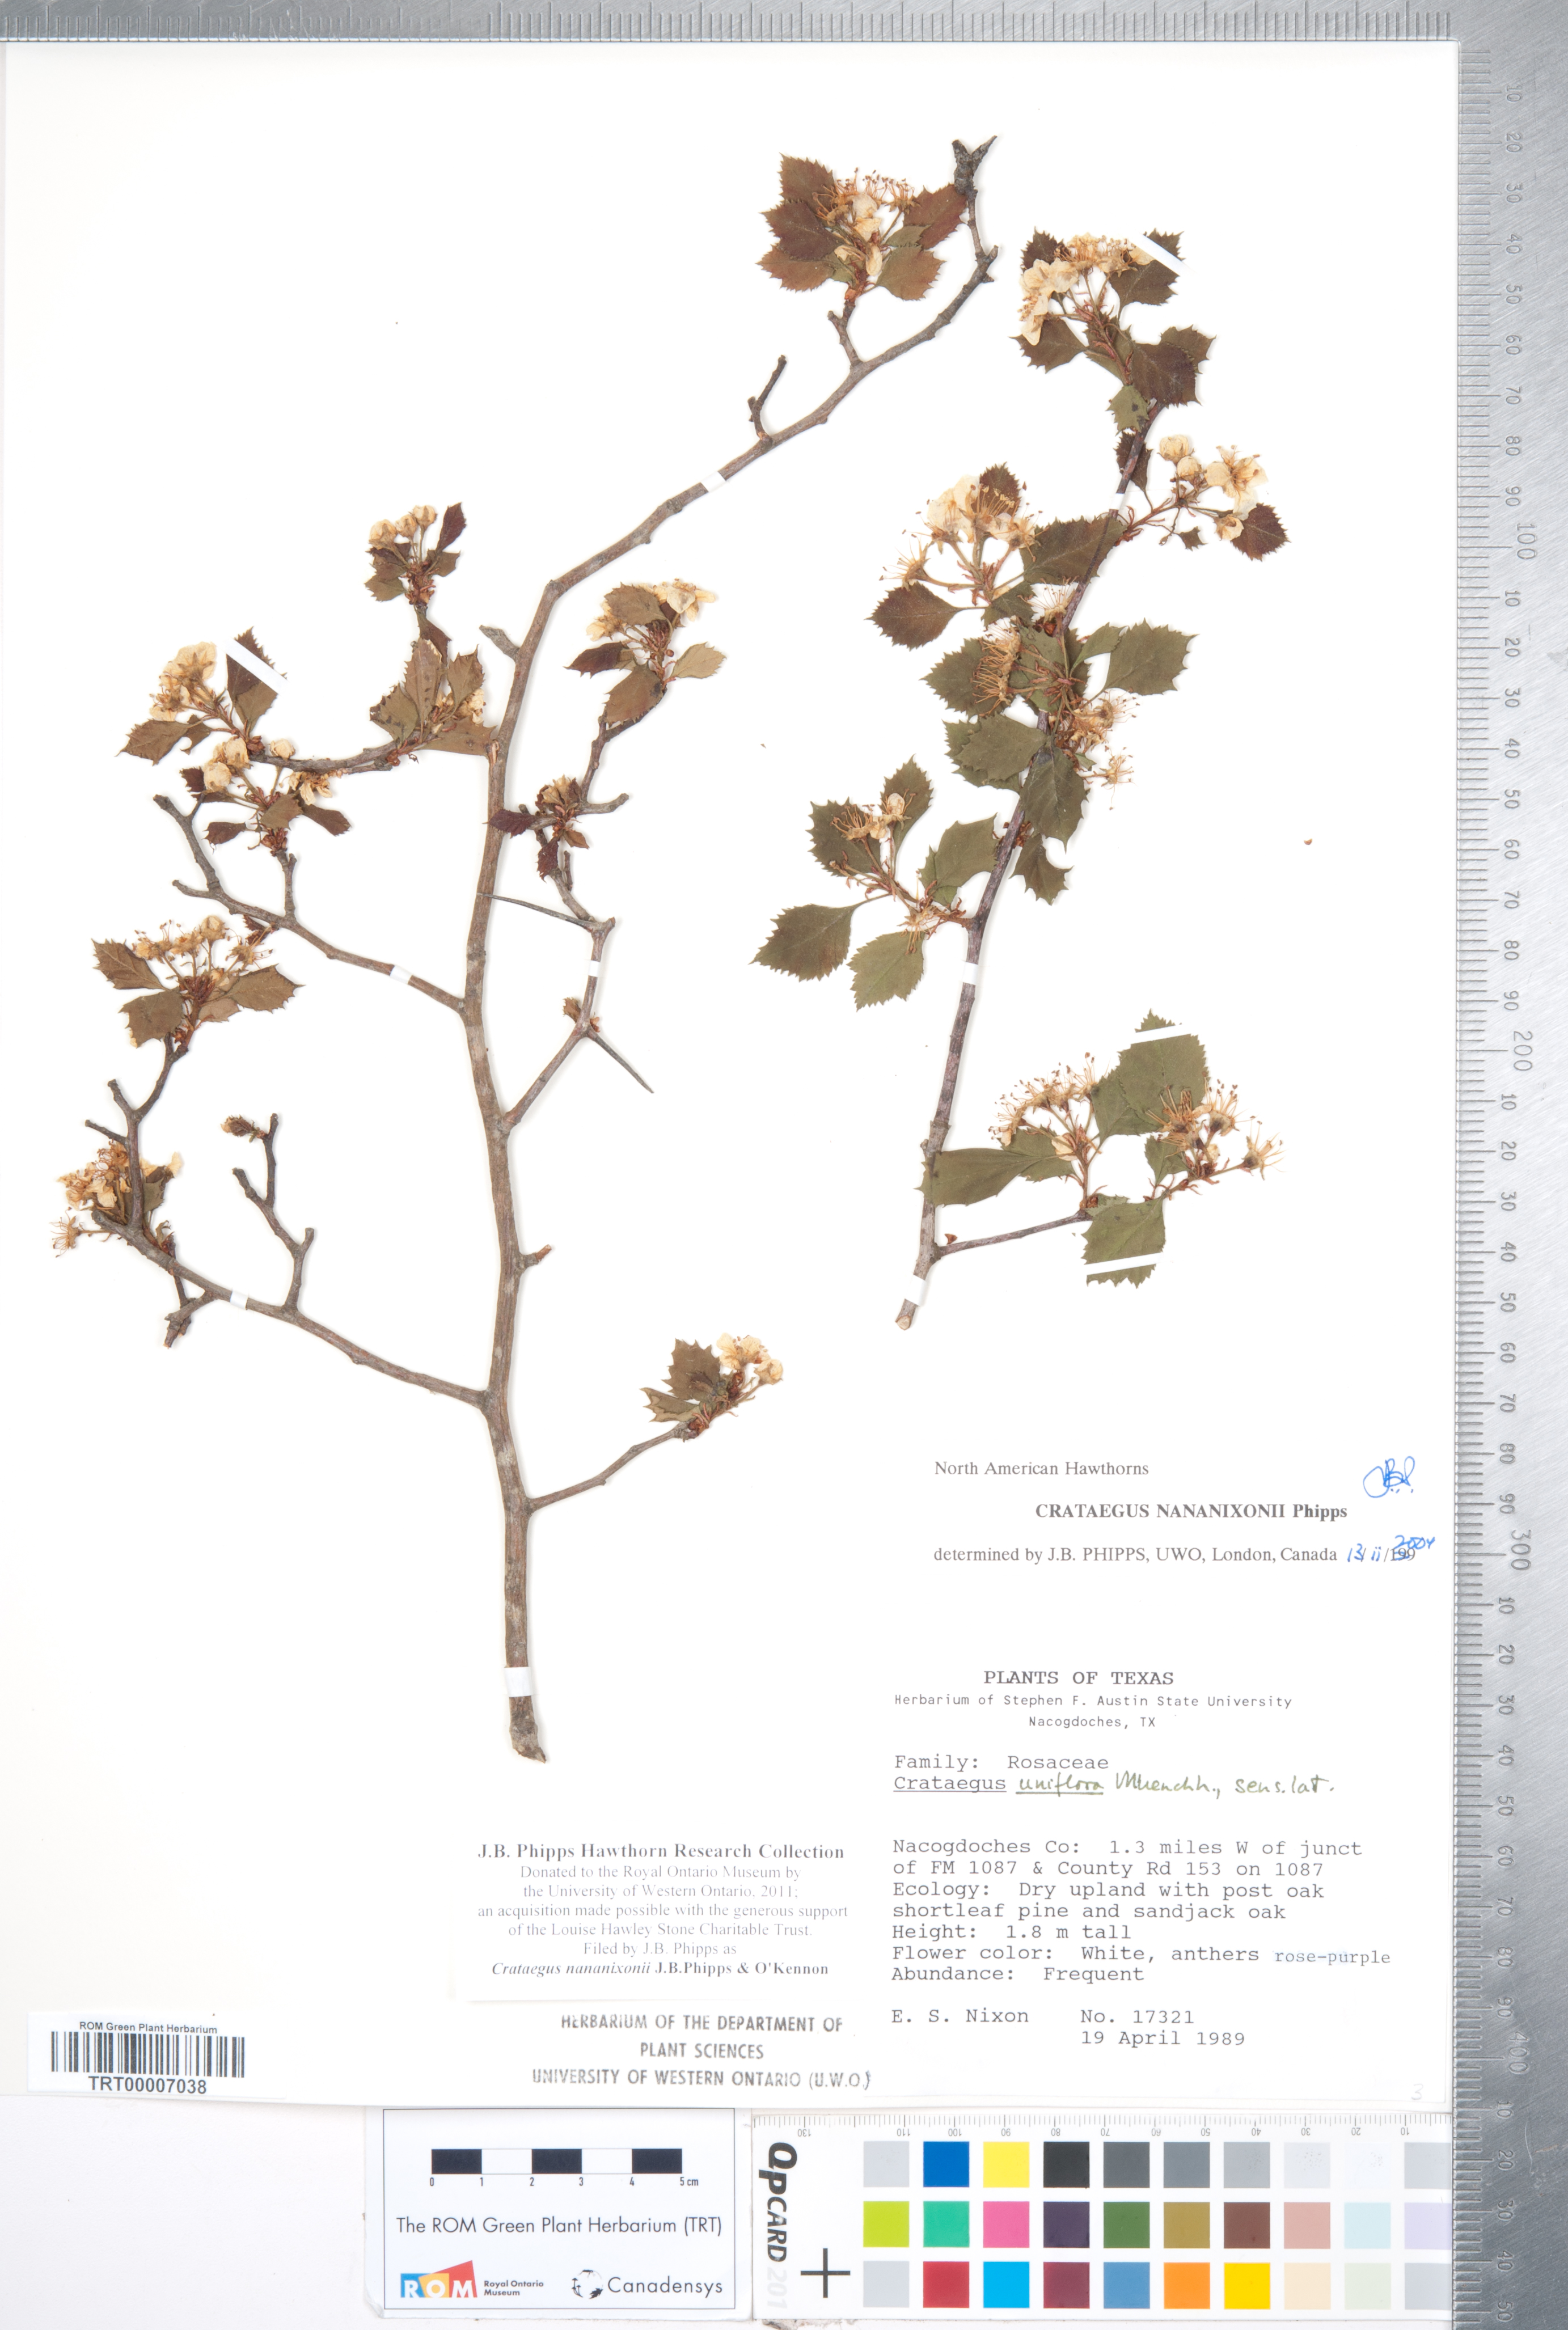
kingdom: Plantae
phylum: Tracheophyta
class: Magnoliopsida
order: Rosales
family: Rosaceae
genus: Crataegus
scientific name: Crataegus nananixonii
